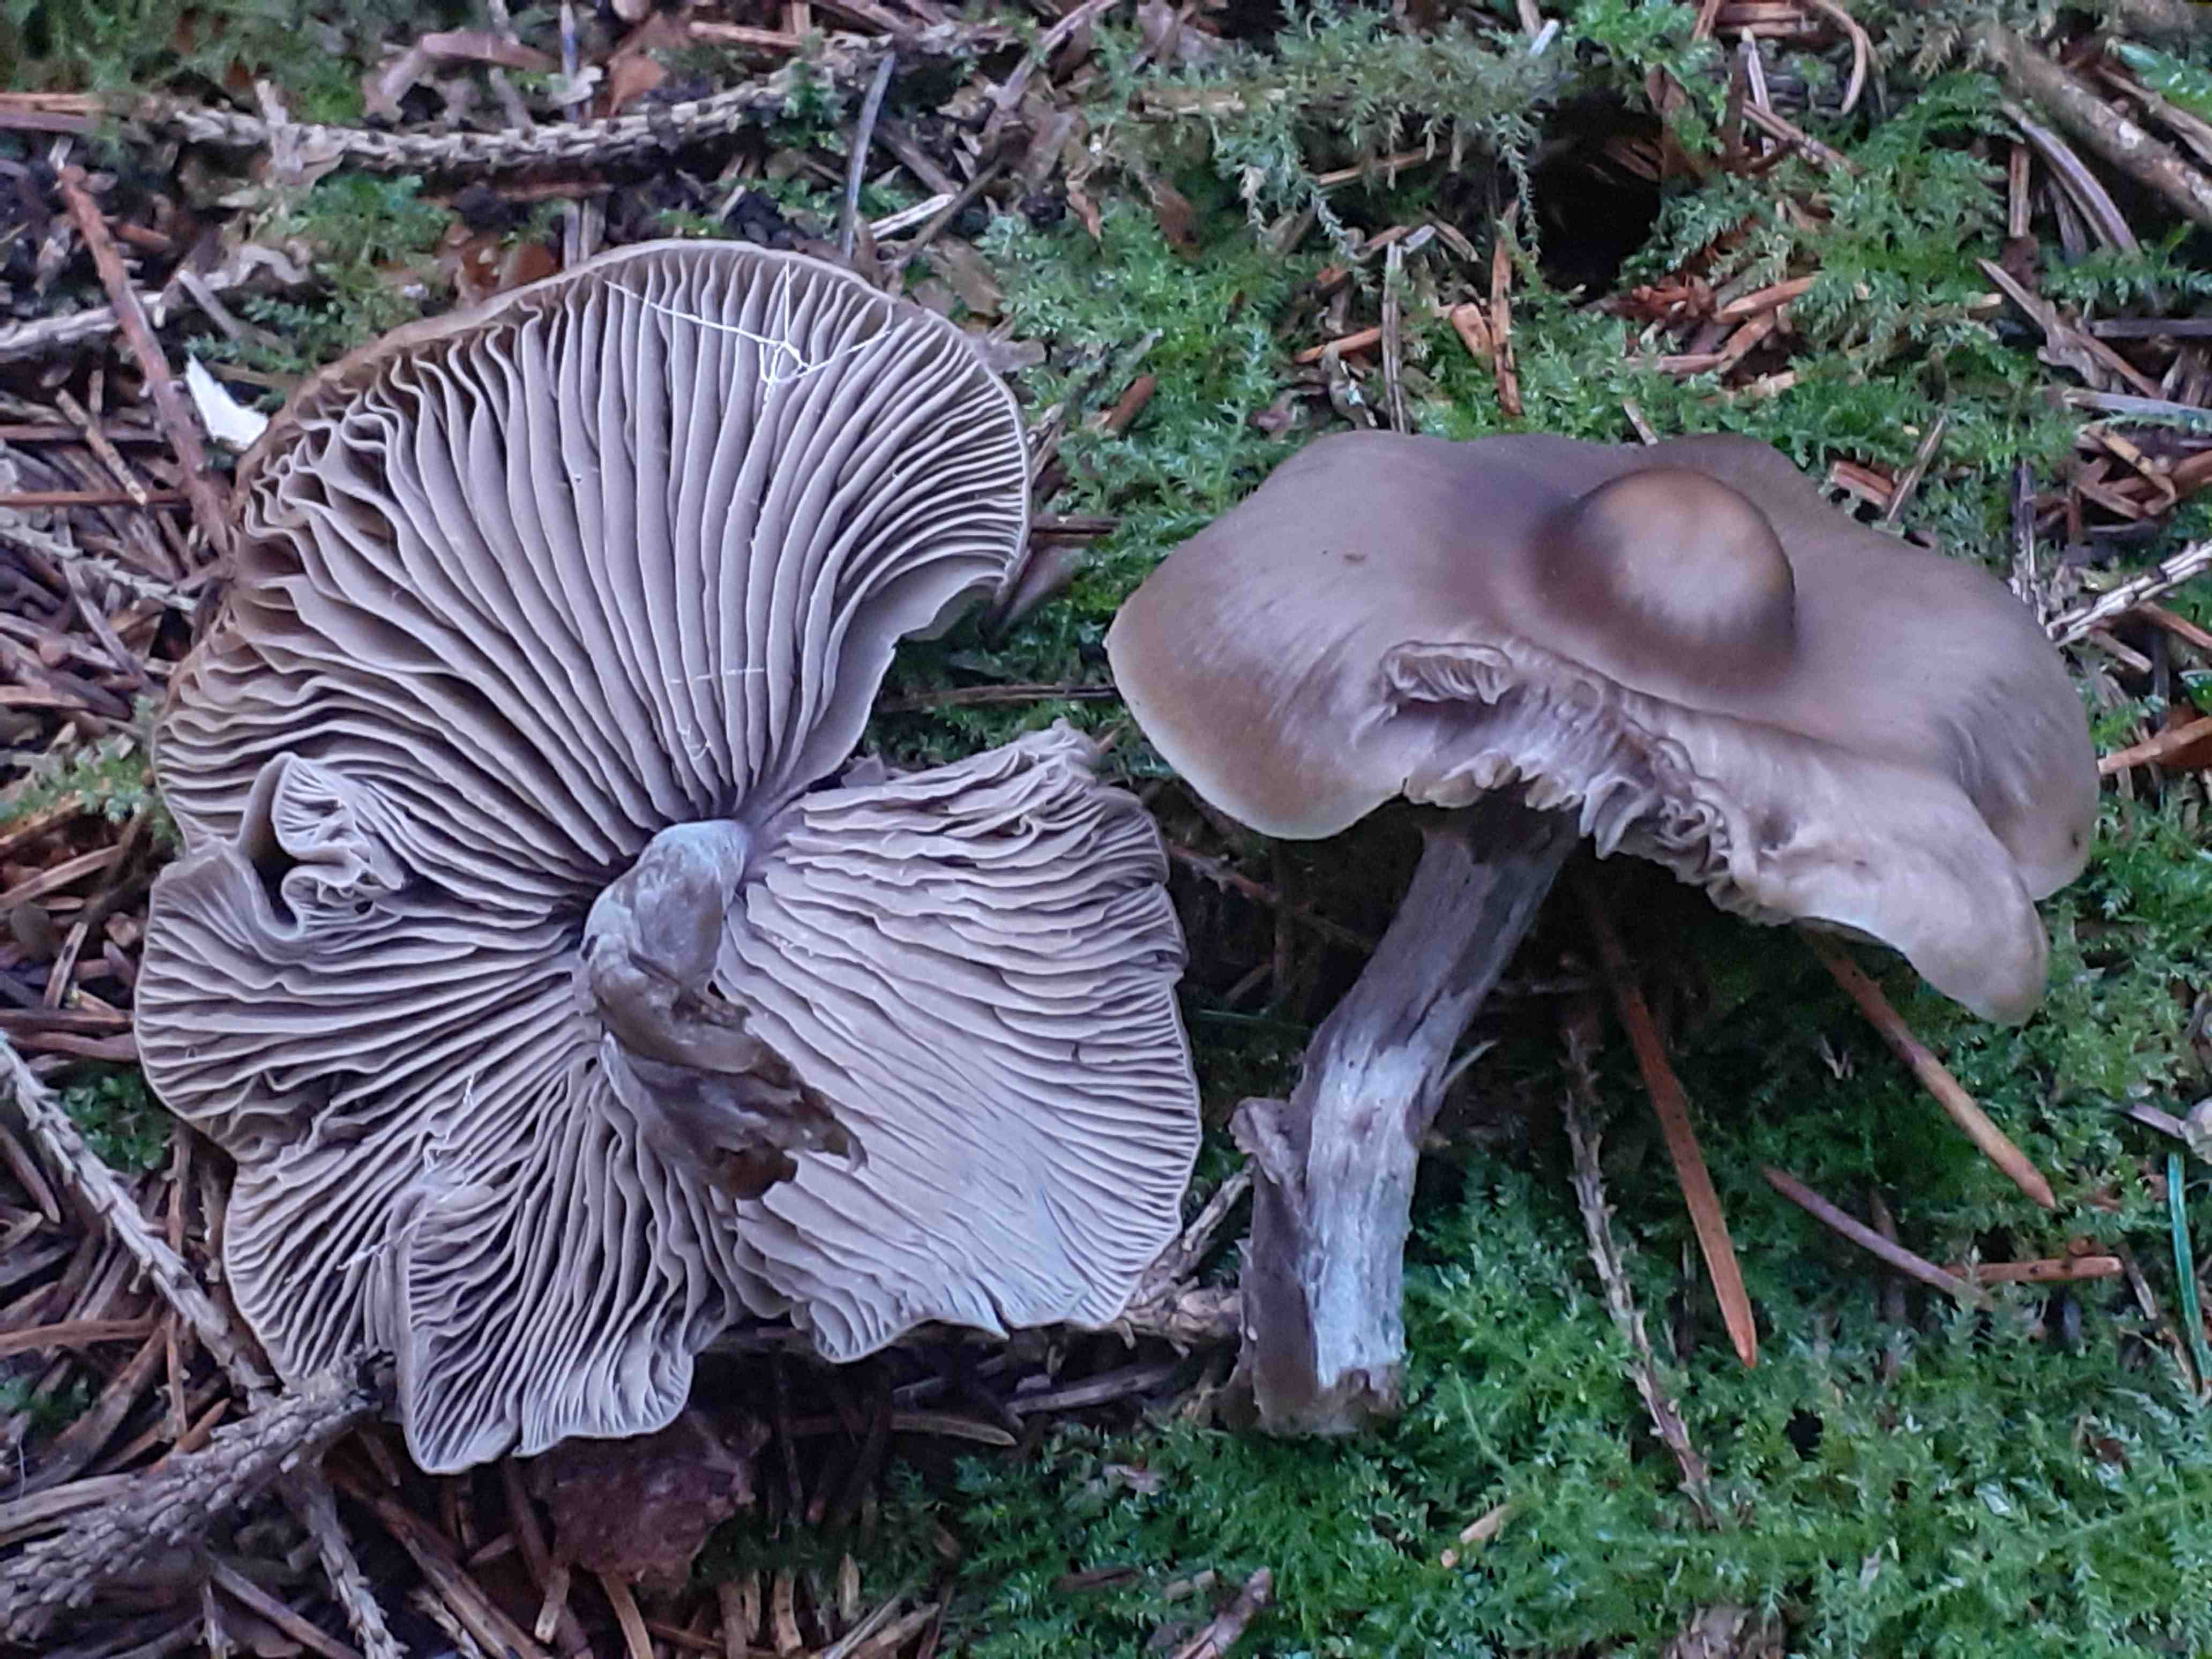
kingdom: Fungi
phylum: Basidiomycota
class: Agaricomycetes
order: Agaricales
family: Lyophyllaceae
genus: Myochromella
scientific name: Myochromella
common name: gråblad
